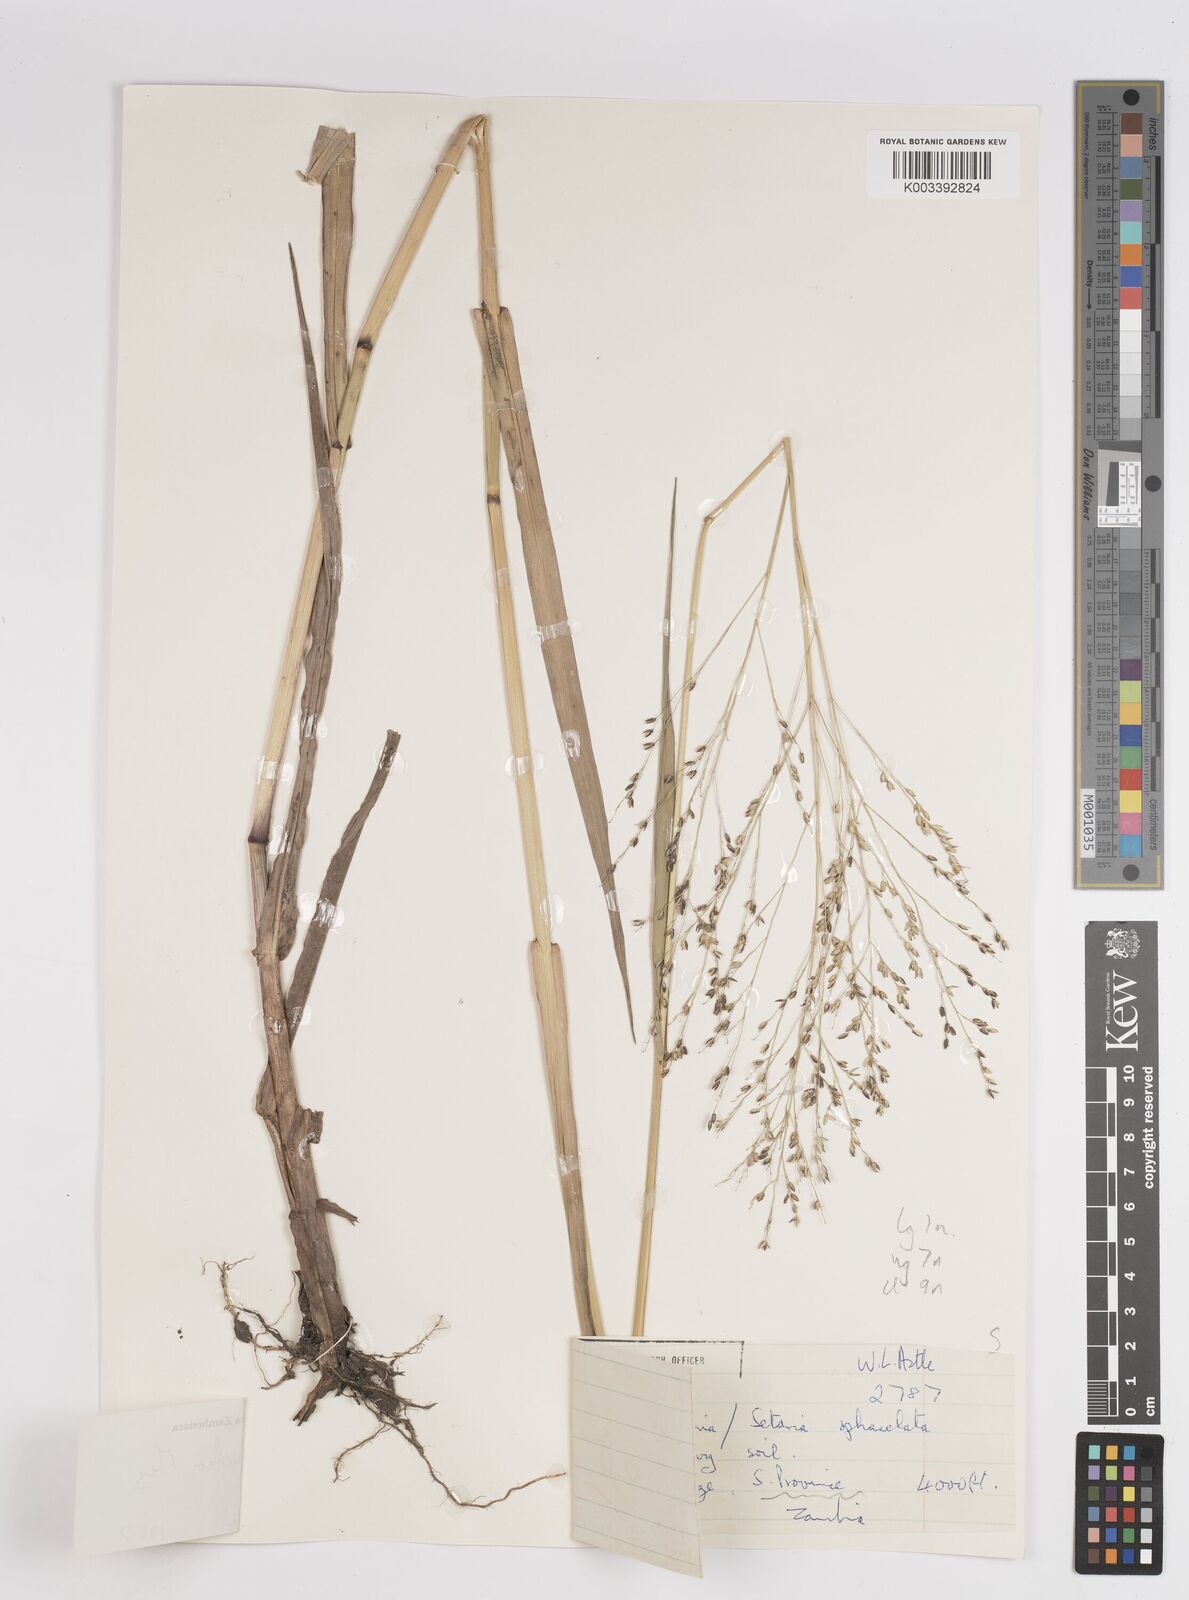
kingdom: Plantae
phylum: Tracheophyta
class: Liliopsida
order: Poales
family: Poaceae
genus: Panicum
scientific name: Panicum merkeri
